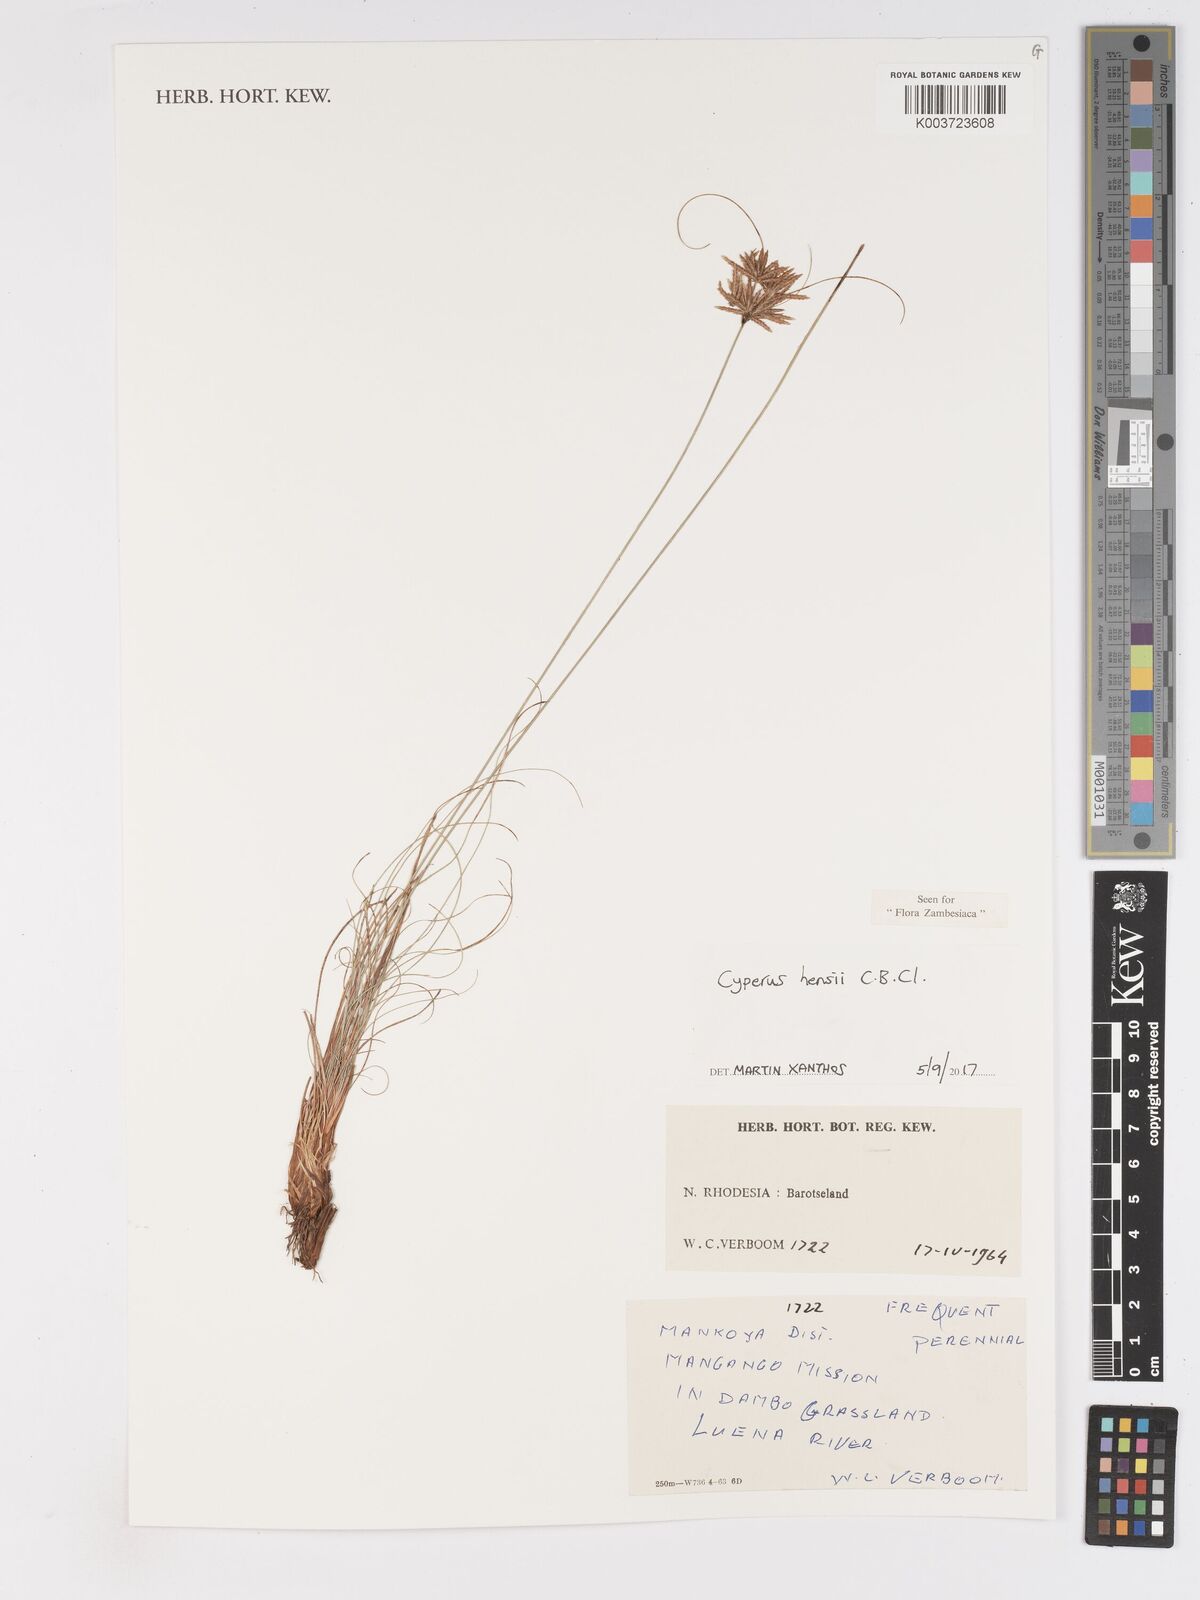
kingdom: Plantae
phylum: Tracheophyta
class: Liliopsida
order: Poales
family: Cyperaceae
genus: Cyperus
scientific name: Cyperus hensii
